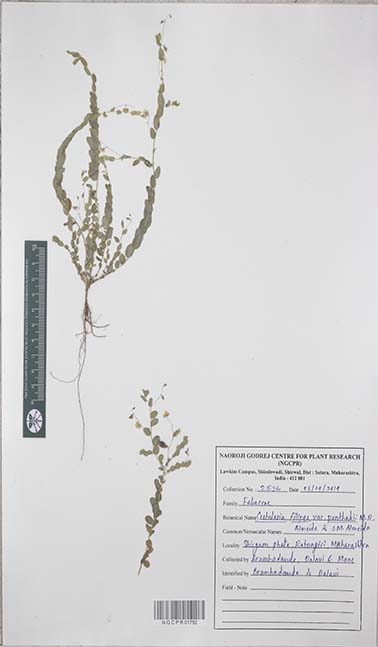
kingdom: Plantae
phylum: Tracheophyta
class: Magnoliopsida
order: Fabales
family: Fabaceae
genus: Crotalaria
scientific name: Crotalaria filipes
